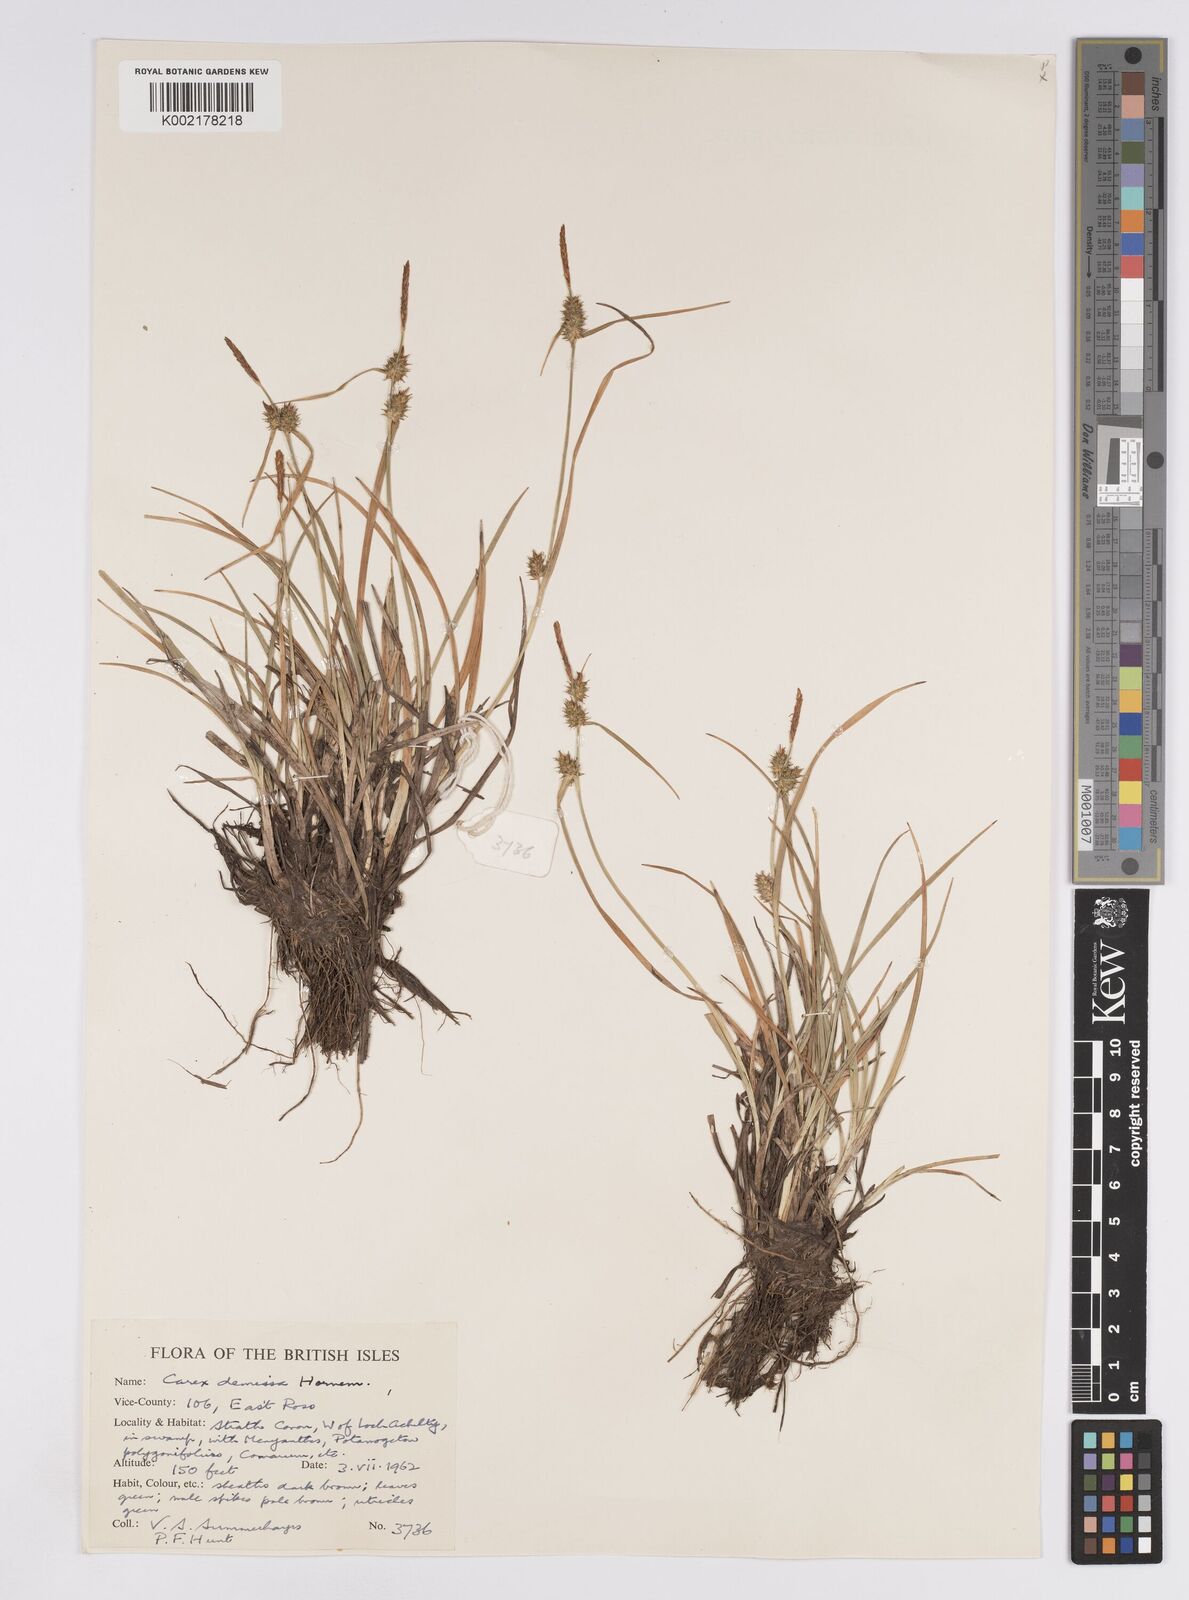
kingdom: Plantae
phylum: Tracheophyta
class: Liliopsida
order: Poales
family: Cyperaceae
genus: Carex
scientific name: Carex demissa
